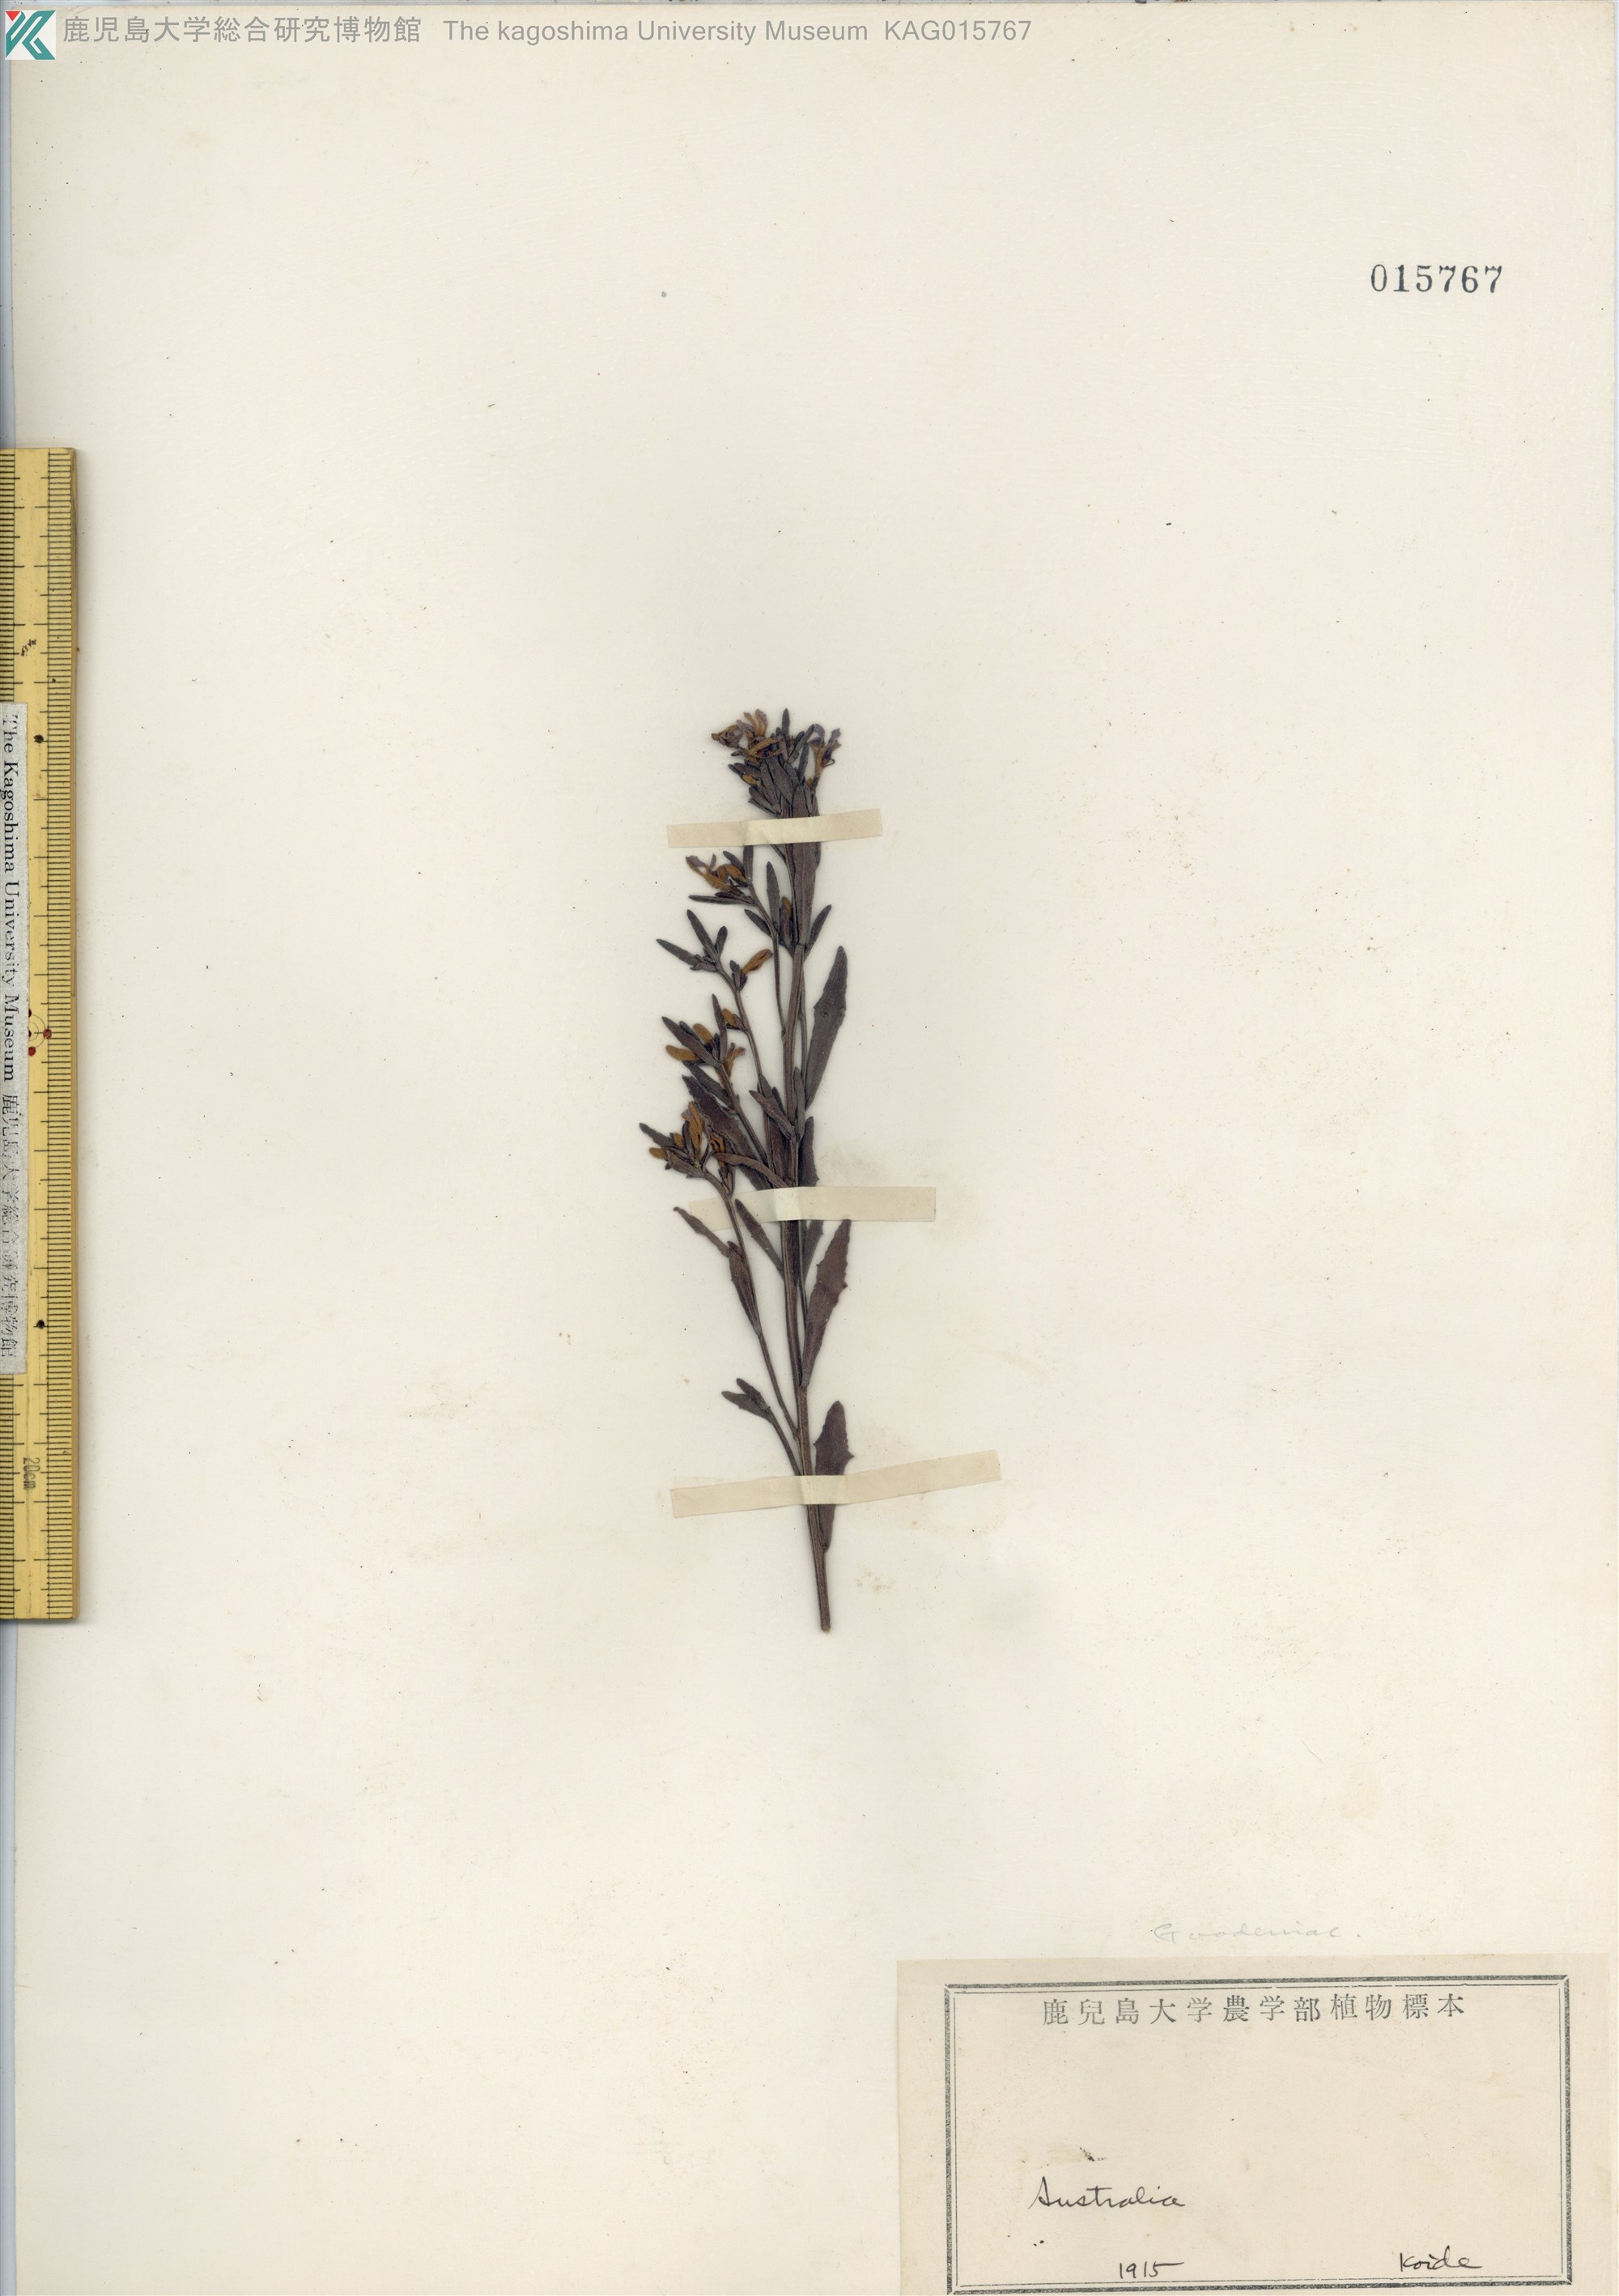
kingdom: Plantae
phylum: Tracheophyta
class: Magnoliopsida
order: Asterales
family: Goodeniaceae
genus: Goodenia
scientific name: Goodenia
